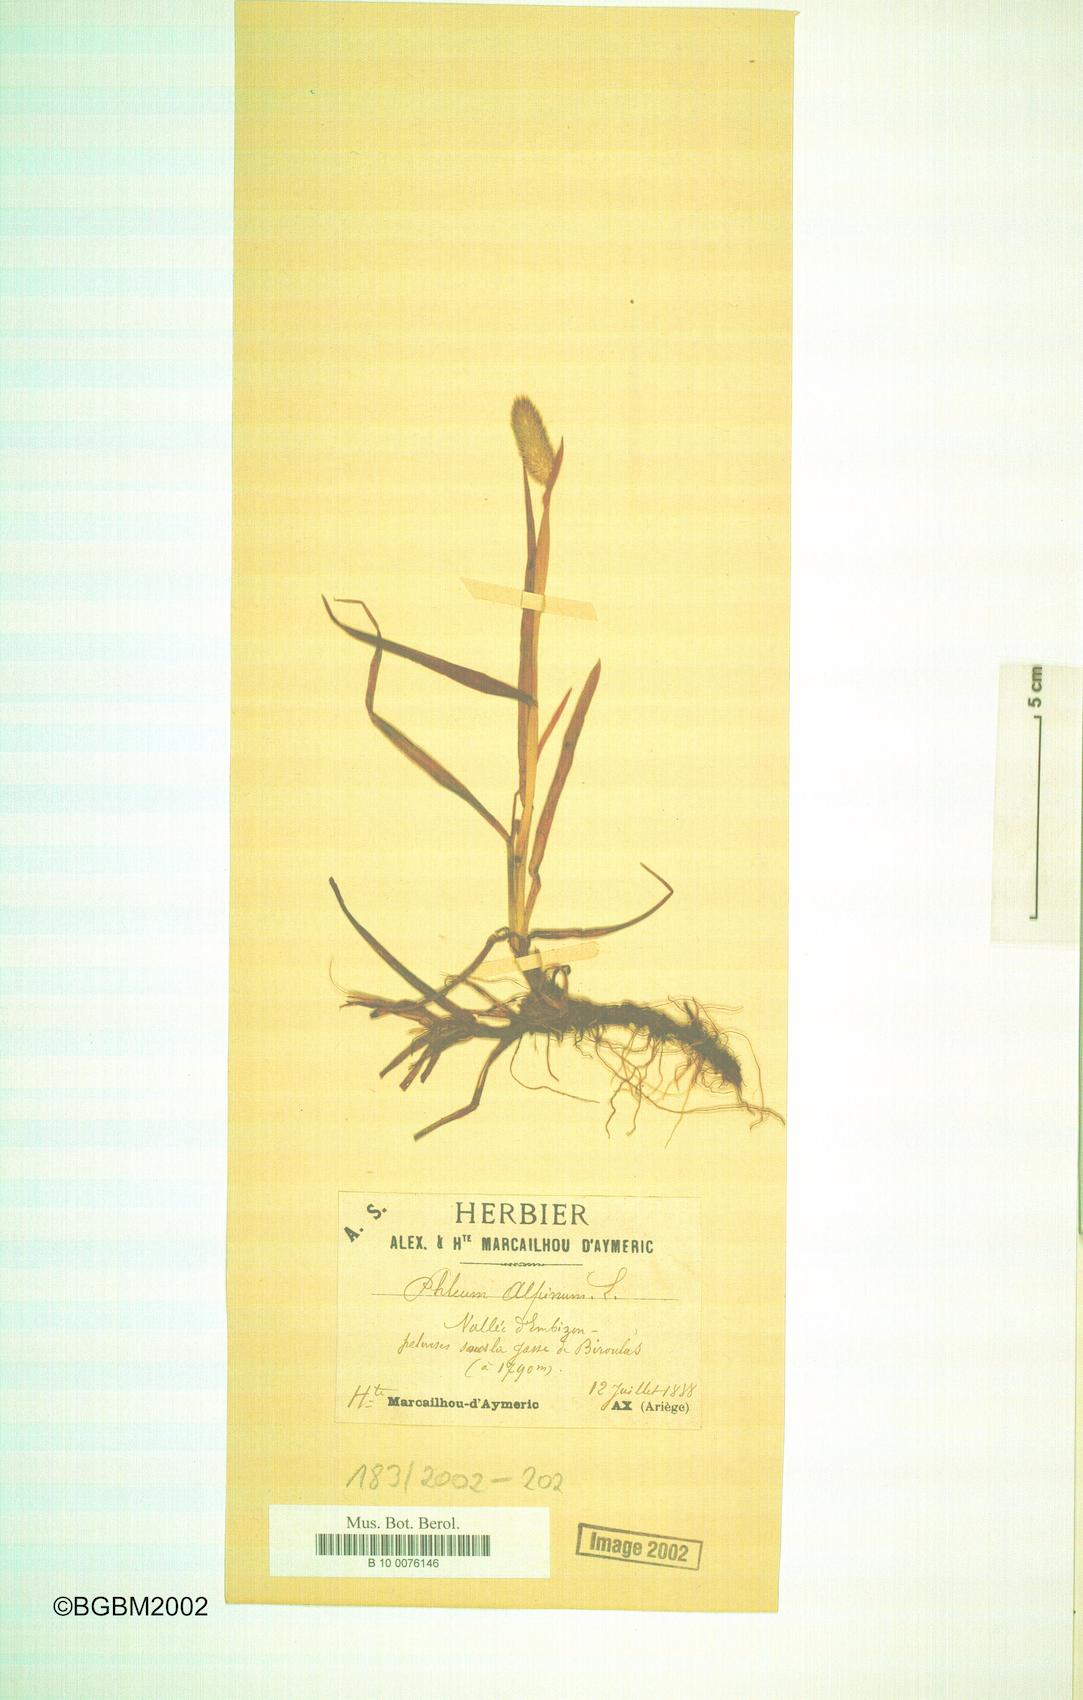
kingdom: Plantae
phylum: Tracheophyta
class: Liliopsida
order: Poales
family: Poaceae
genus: Phleum
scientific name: Phleum alpinum
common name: Alpine cat's-tail
